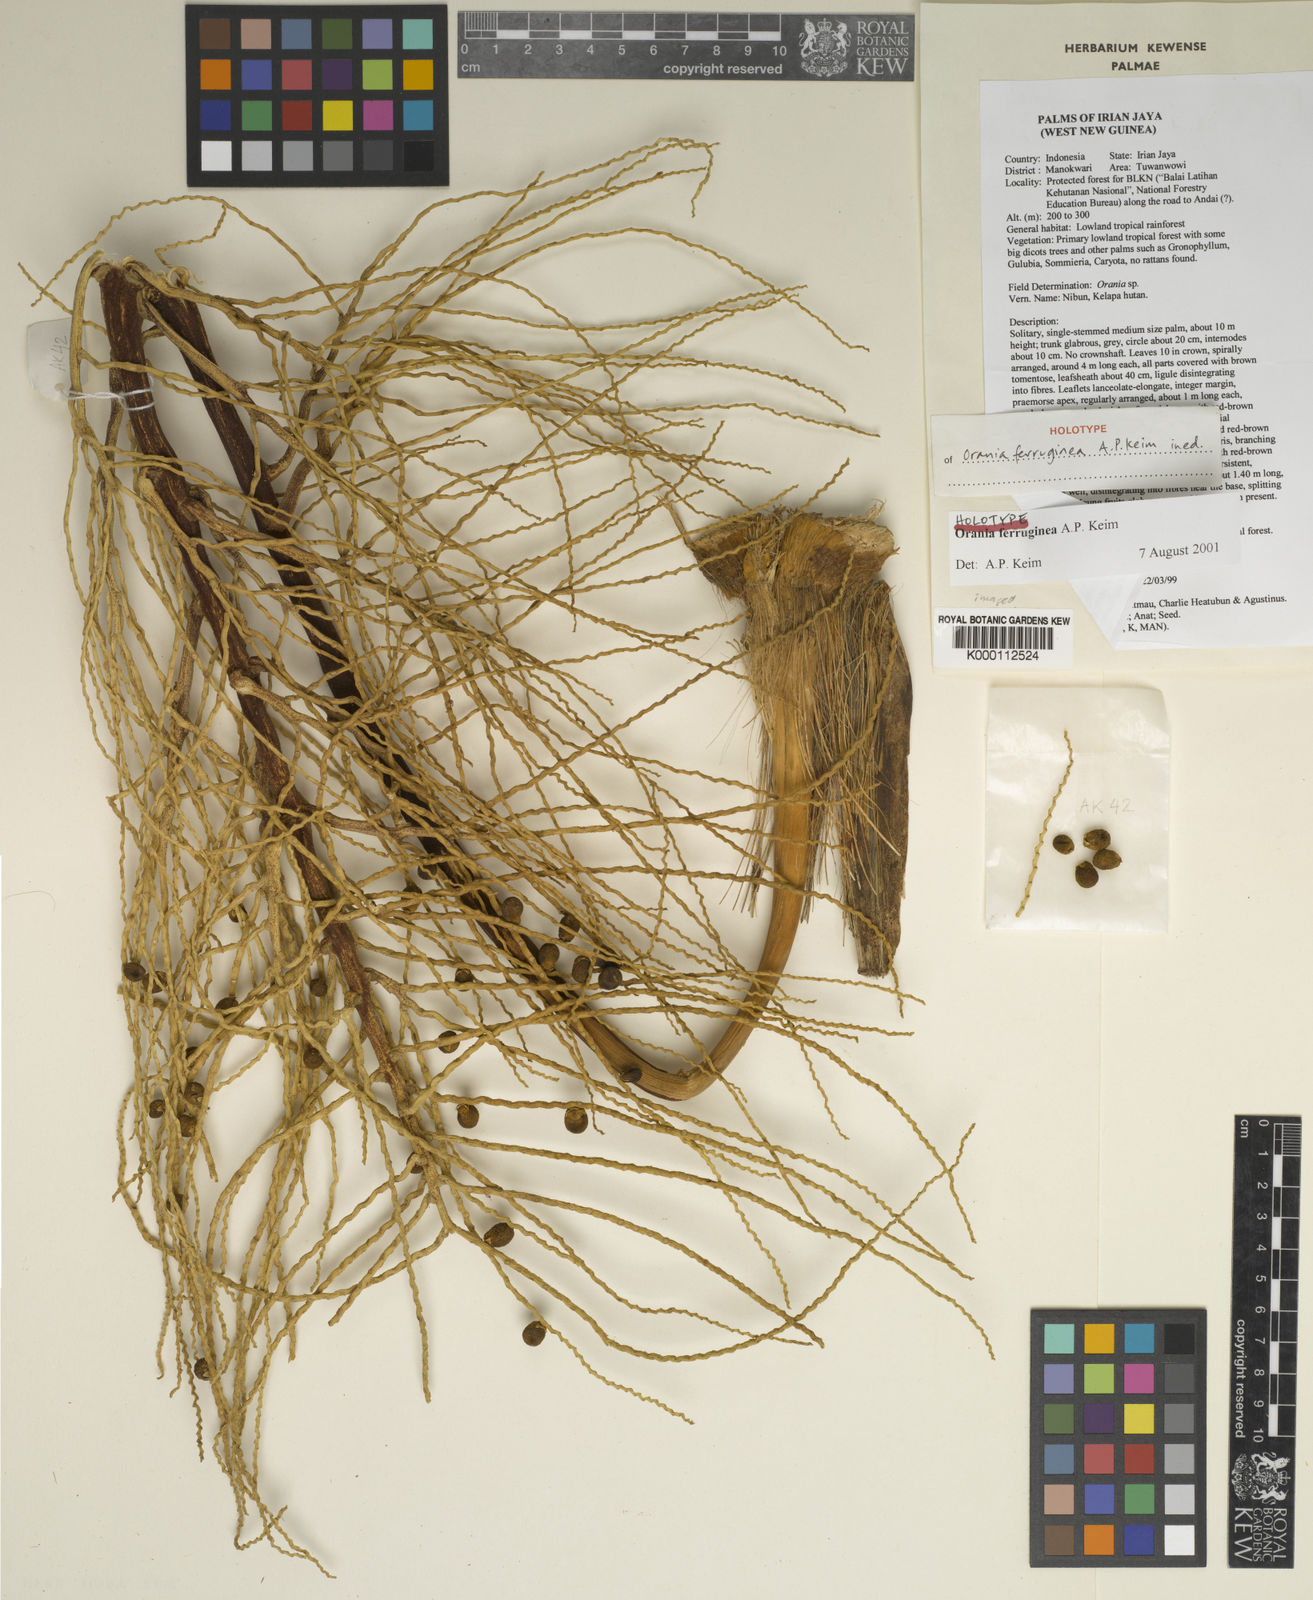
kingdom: Plantae
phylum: Tracheophyta
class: Liliopsida
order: Arecales
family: Arecaceae
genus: Orania
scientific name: Orania ferruginea
